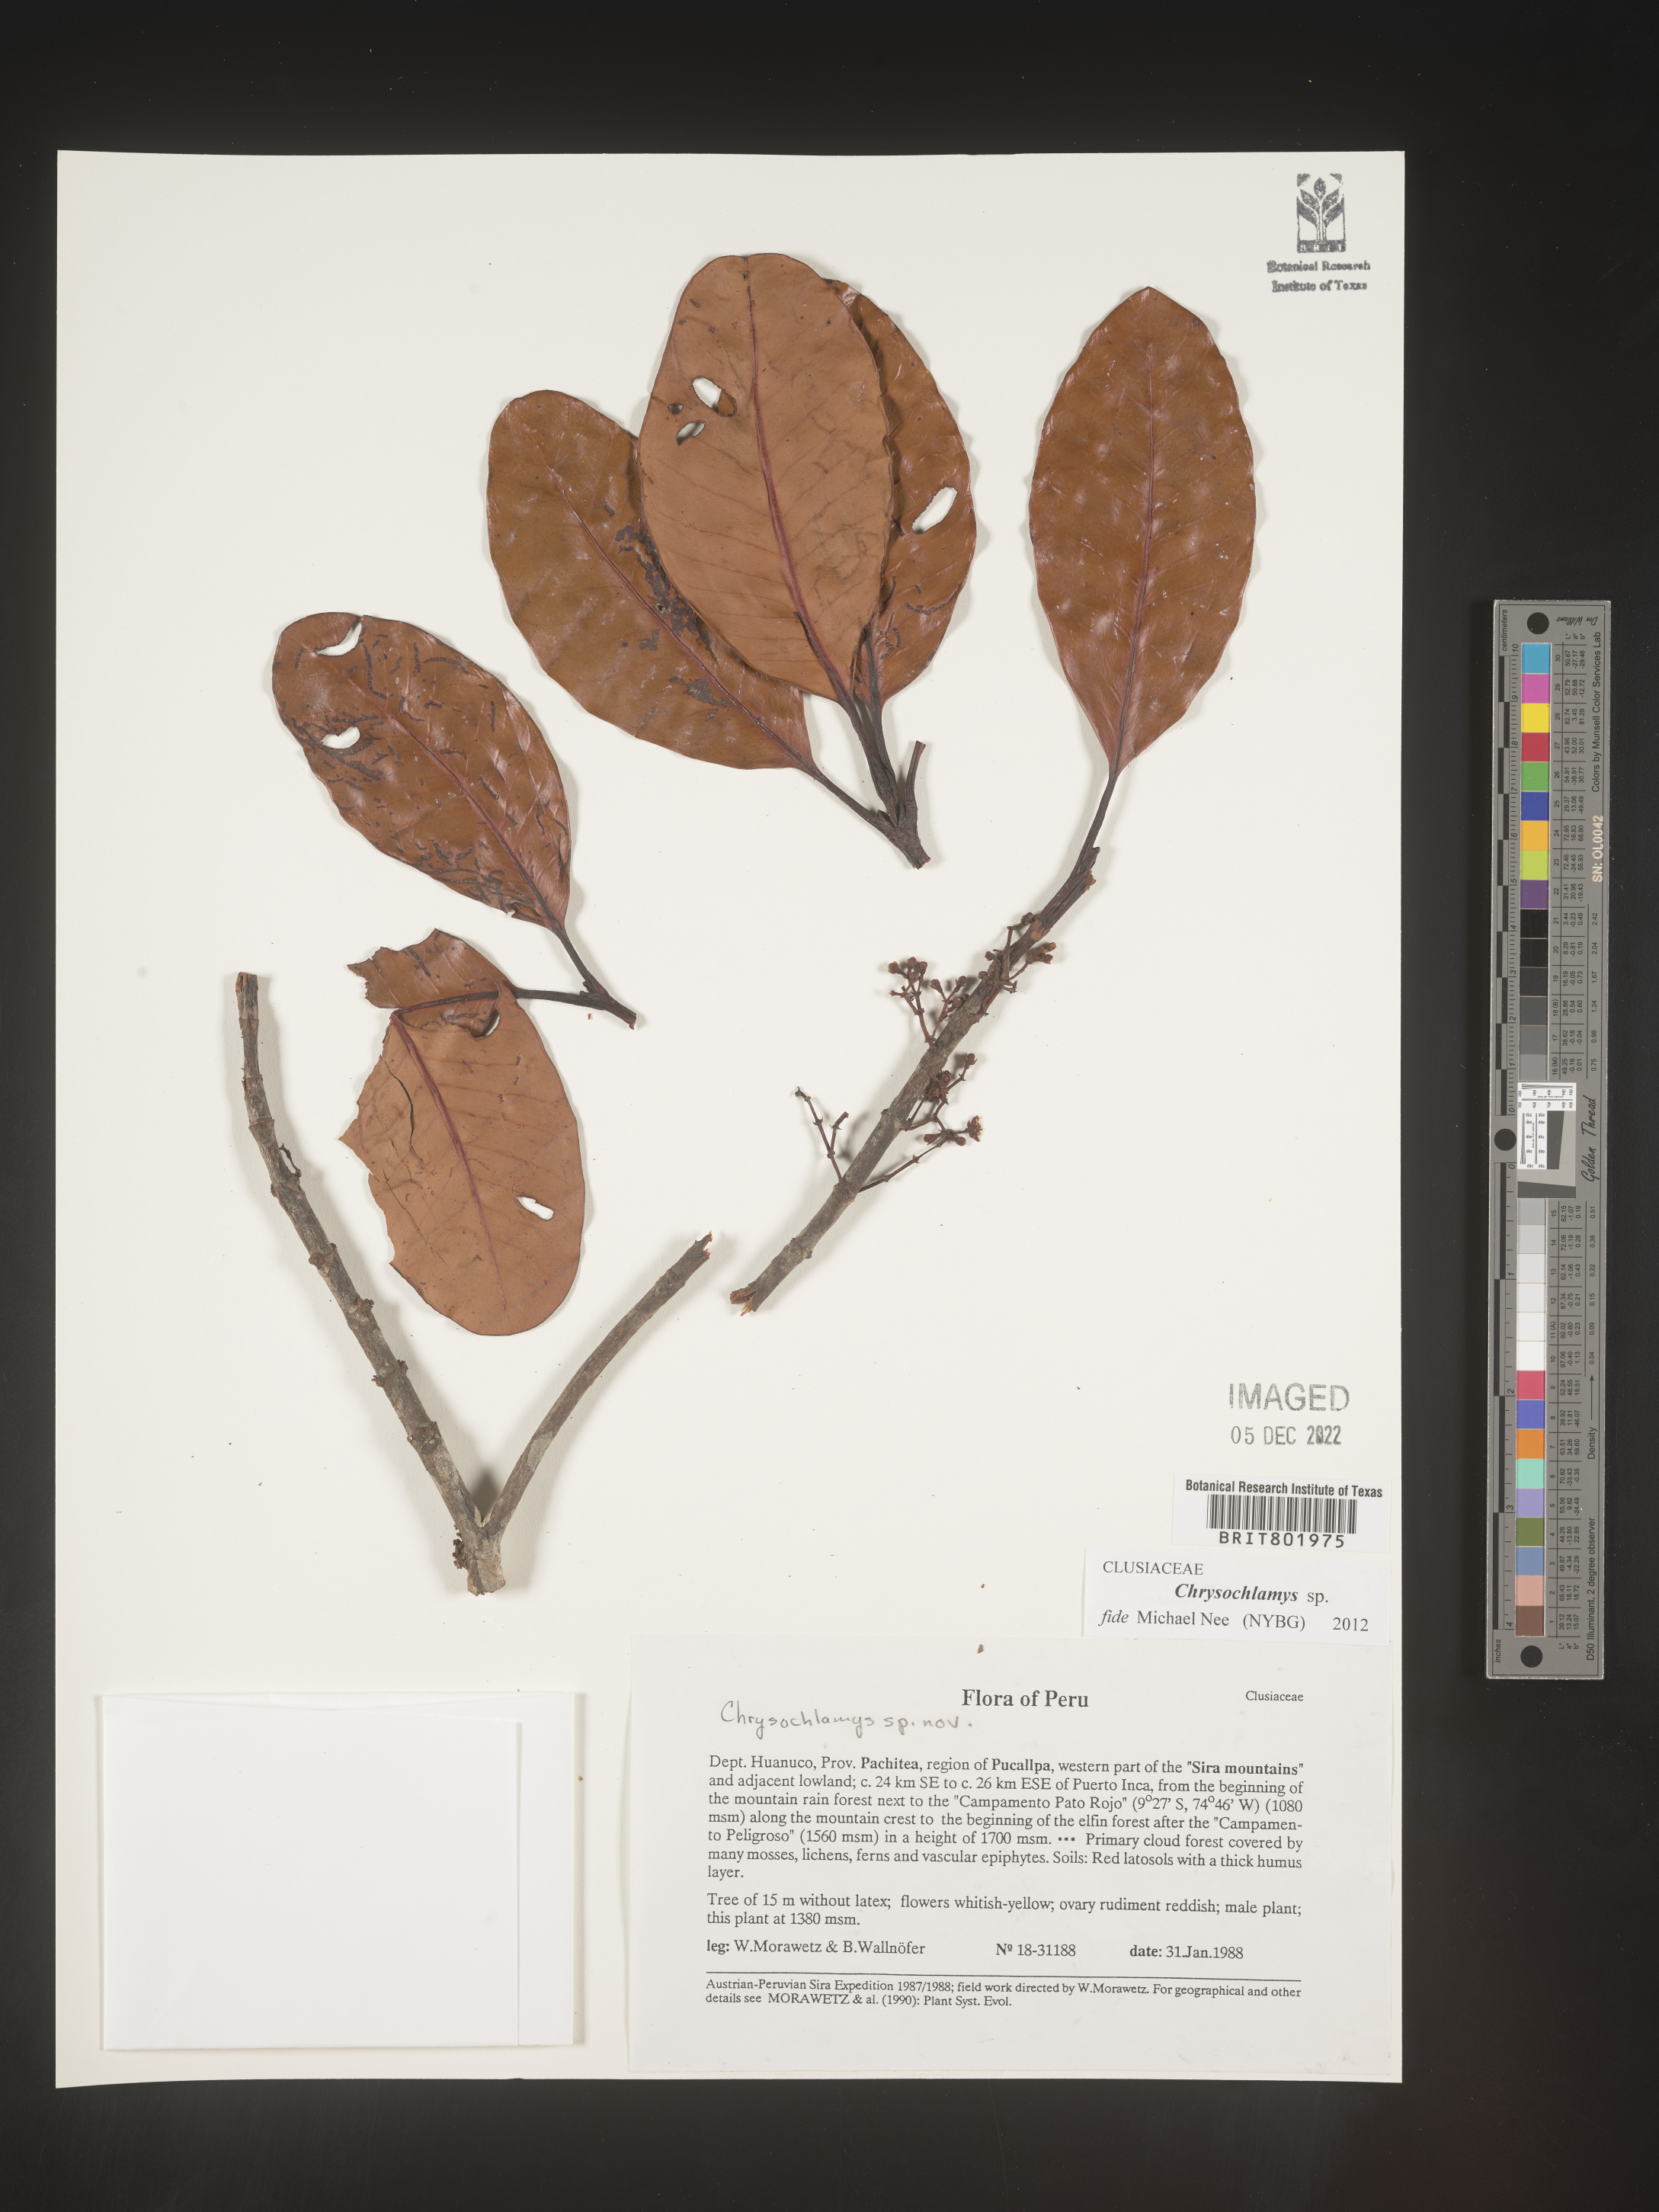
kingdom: Plantae
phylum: Tracheophyta
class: Magnoliopsida
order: Malpighiales
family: Clusiaceae
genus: Chrysochlamys
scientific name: Chrysochlamys
